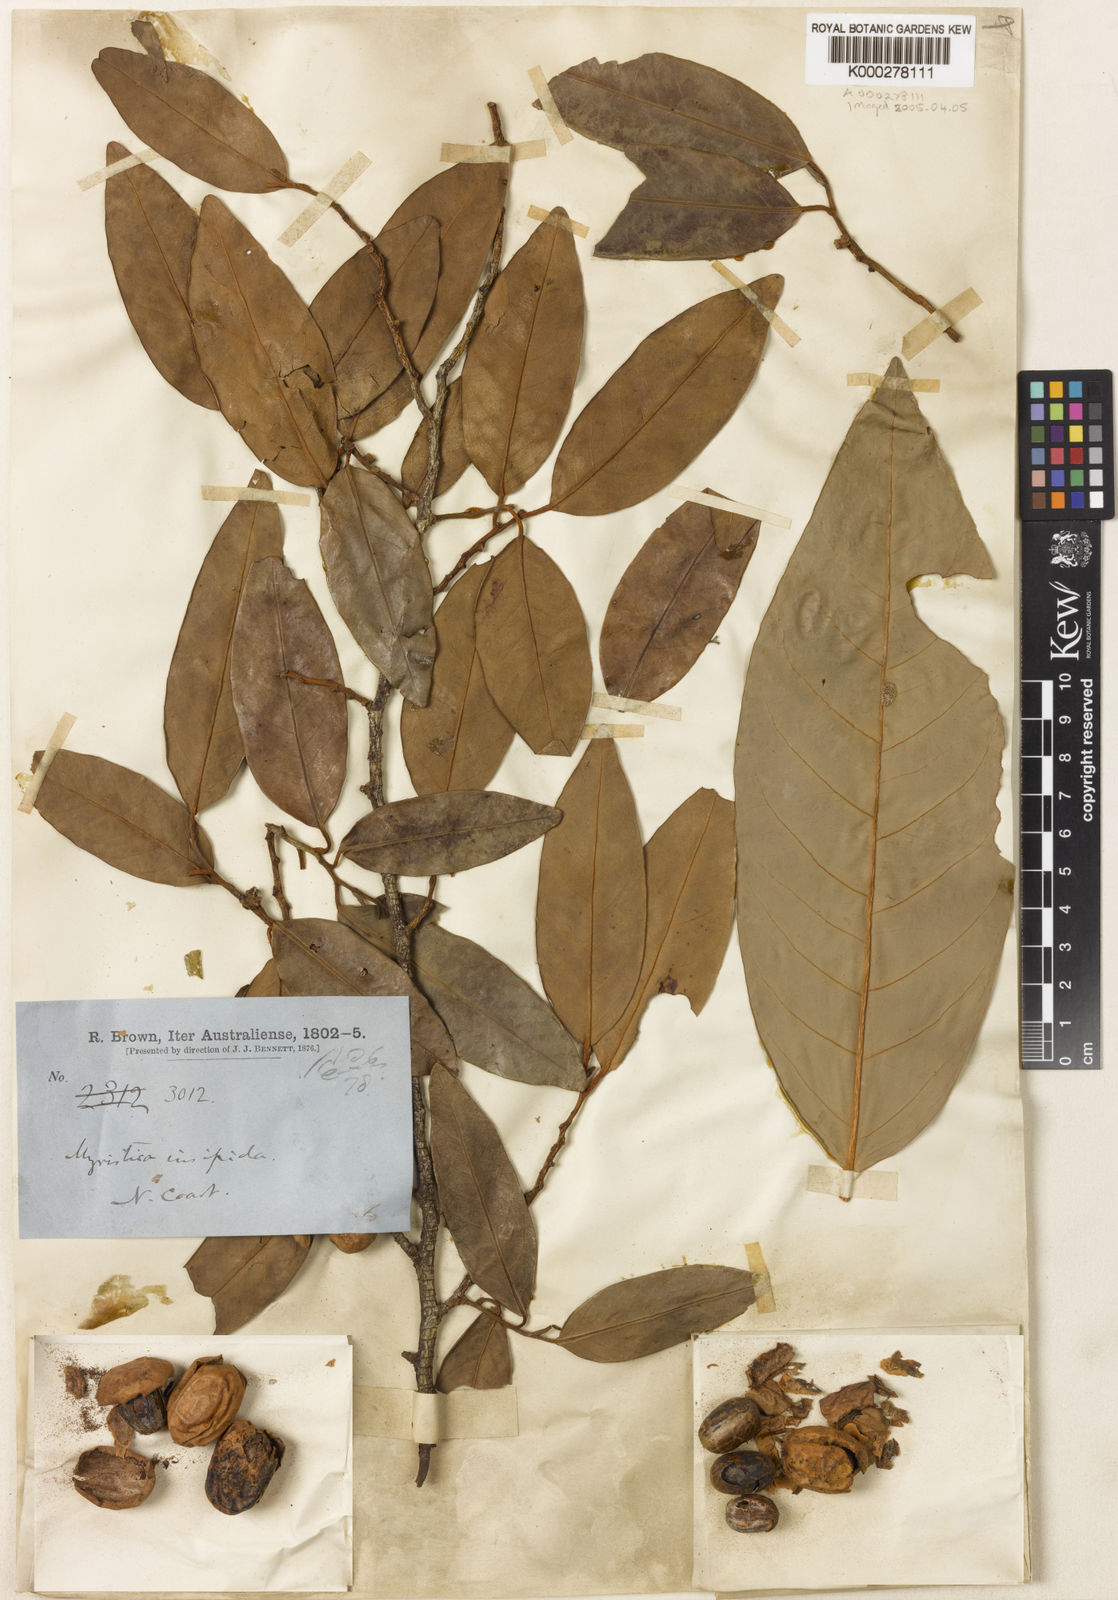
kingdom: Plantae
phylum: Tracheophyta
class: Magnoliopsida
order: Magnoliales
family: Myristicaceae
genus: Myristica
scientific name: Myristica insipida
